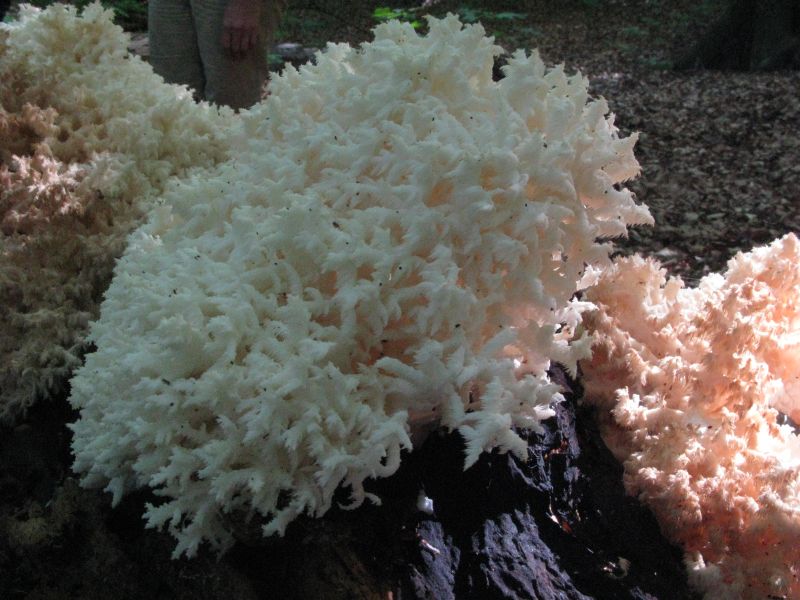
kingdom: Fungi
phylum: Basidiomycota
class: Agaricomycetes
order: Russulales
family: Hericiaceae
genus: Hericium
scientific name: Hericium coralloides
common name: koralpigsvamp
